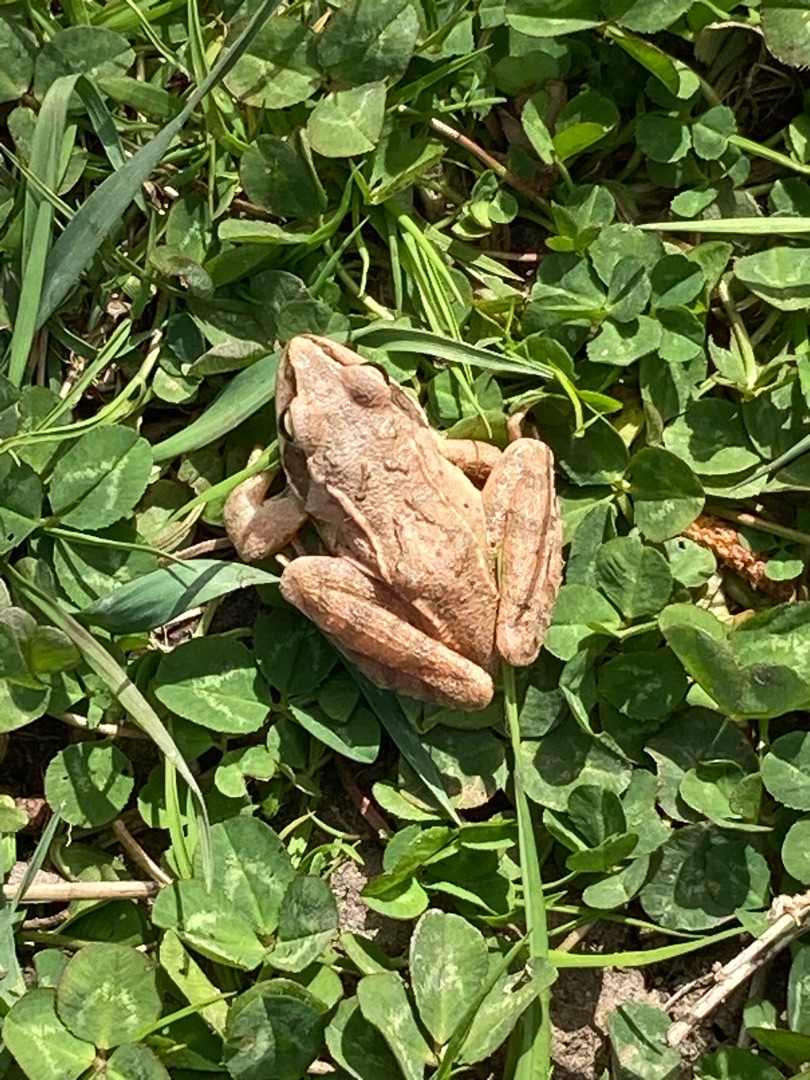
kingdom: Animalia
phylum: Chordata
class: Amphibia
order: Anura
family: Ranidae
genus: Rana
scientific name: Rana dalmatina
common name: Springfrø
